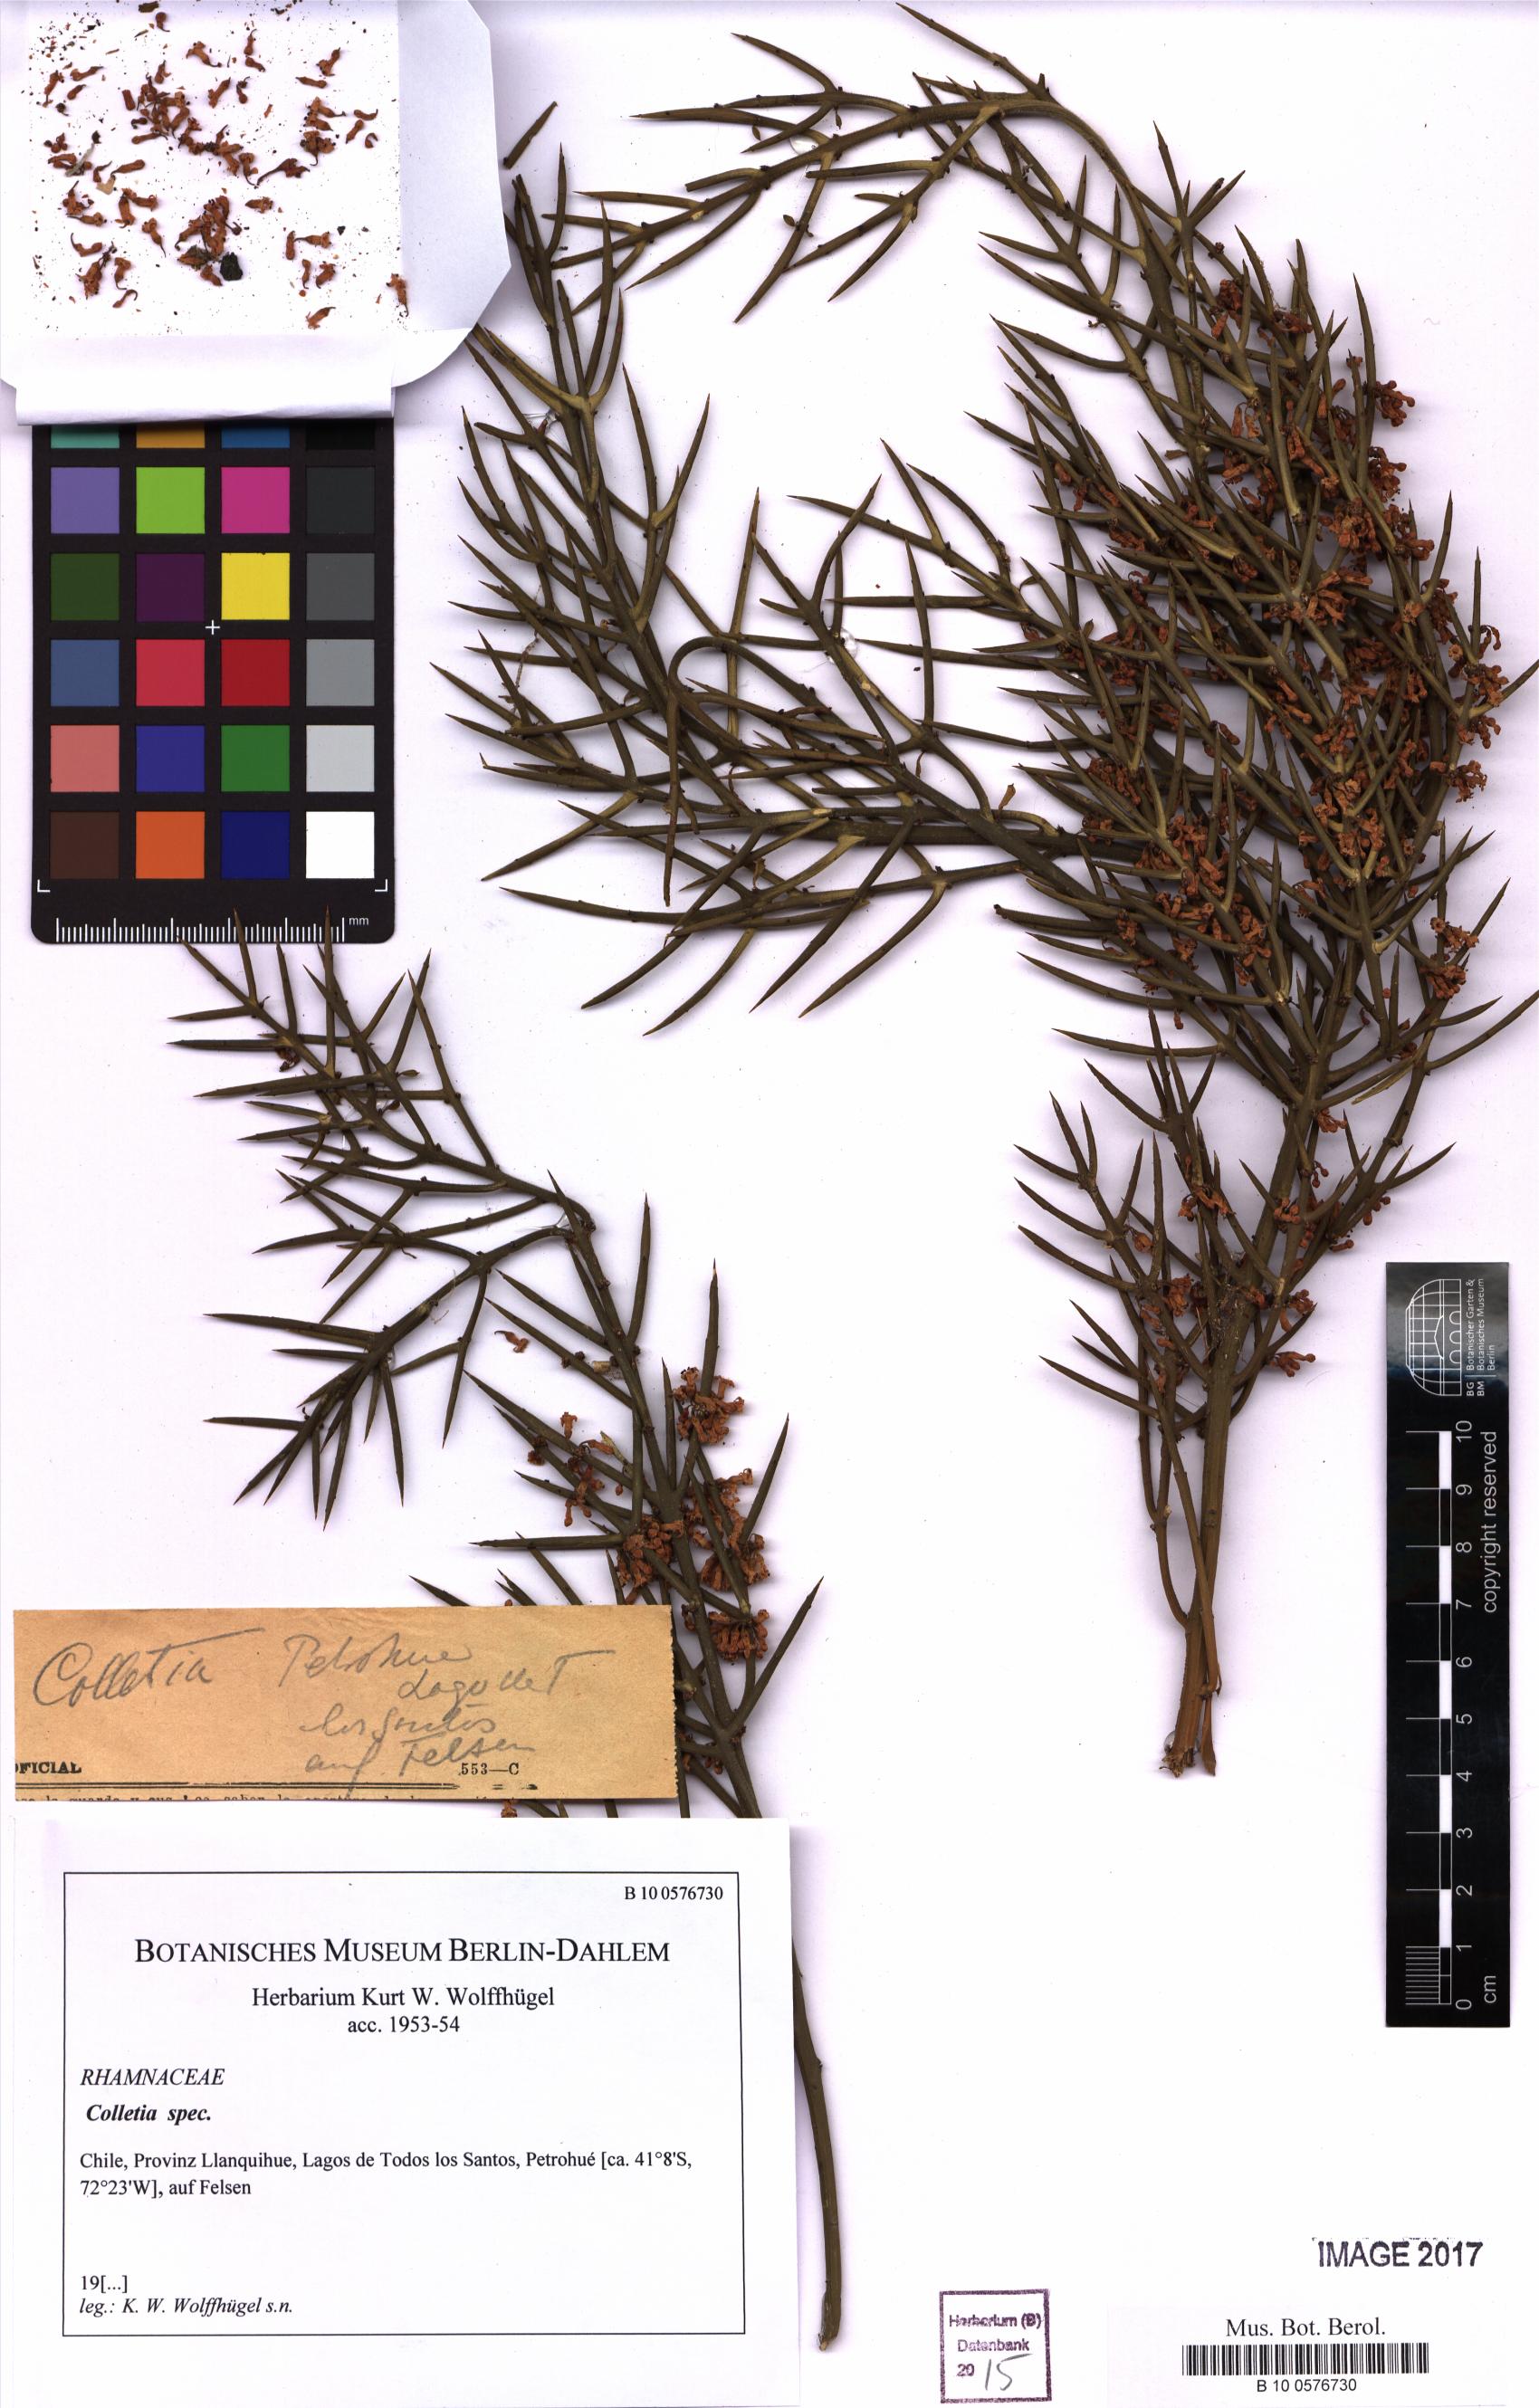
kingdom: Plantae
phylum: Tracheophyta
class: Magnoliopsida
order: Rosales
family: Rhamnaceae
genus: Colletia
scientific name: Colletia
